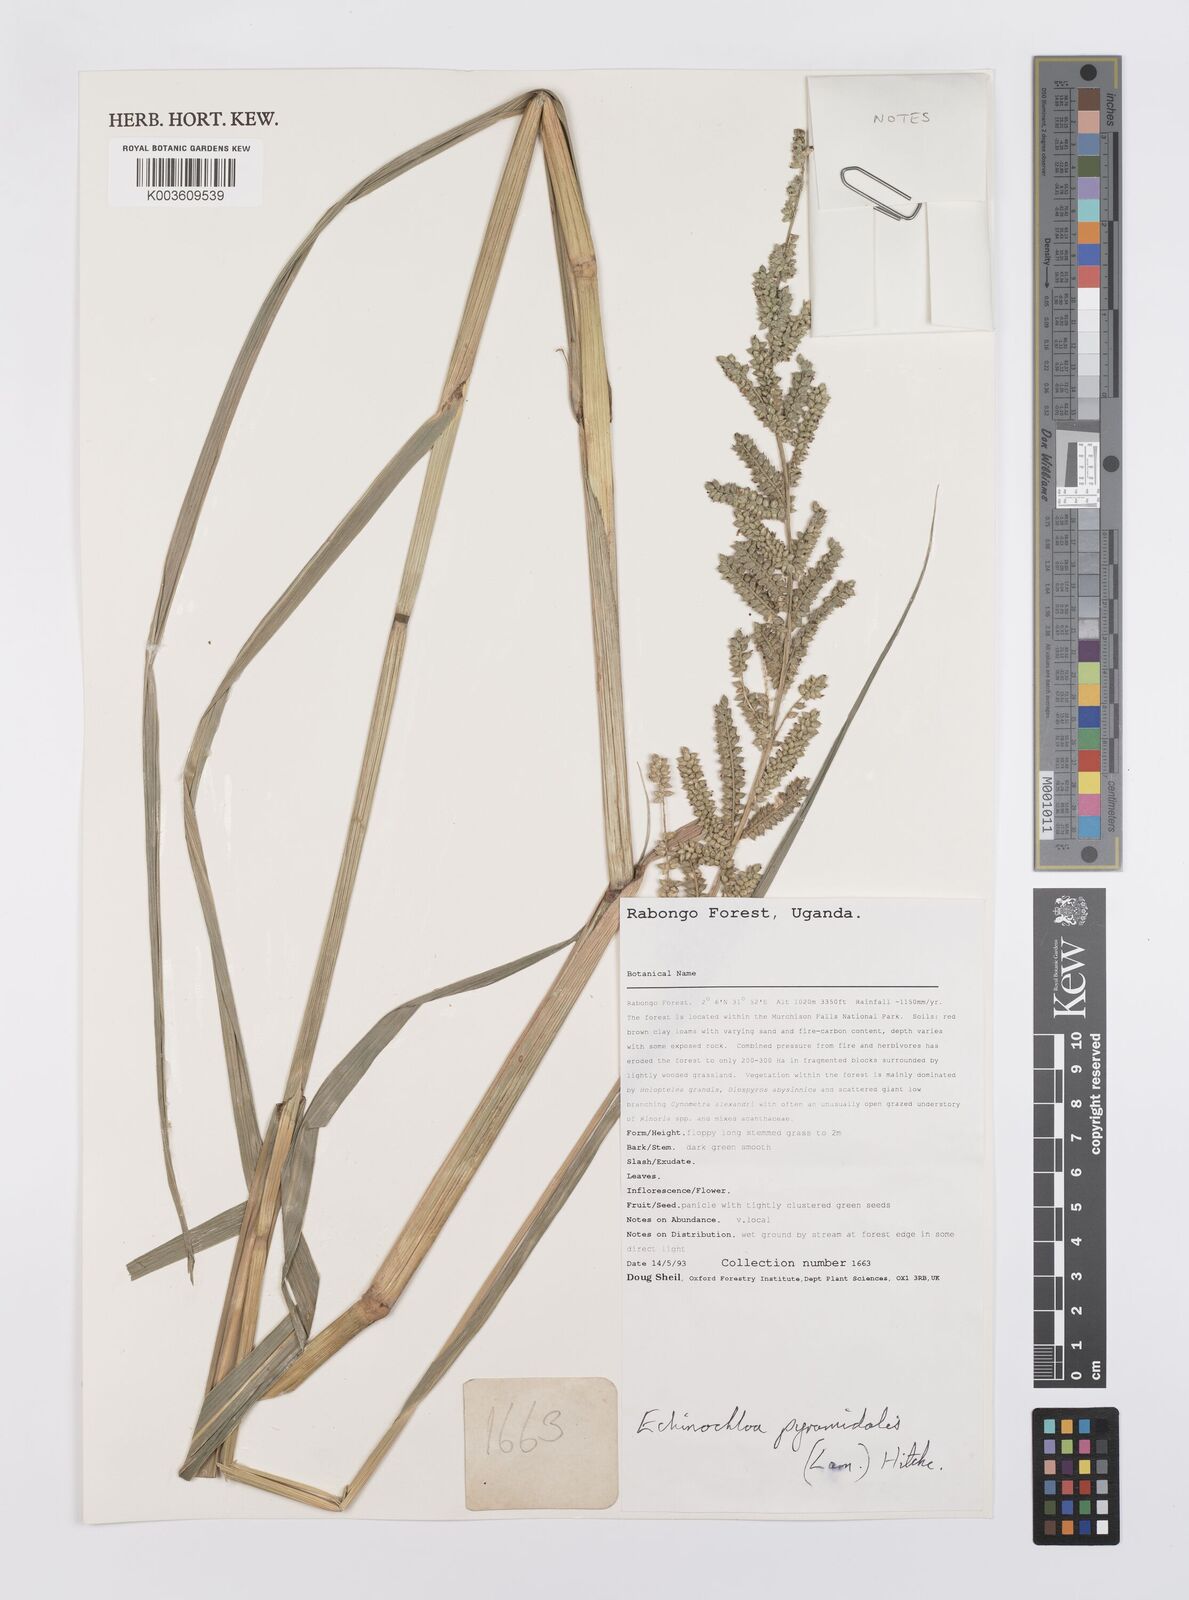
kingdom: Plantae
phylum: Tracheophyta
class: Liliopsida
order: Poales
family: Poaceae
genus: Echinochloa
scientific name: Echinochloa pyramidalis
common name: Antelope grass
